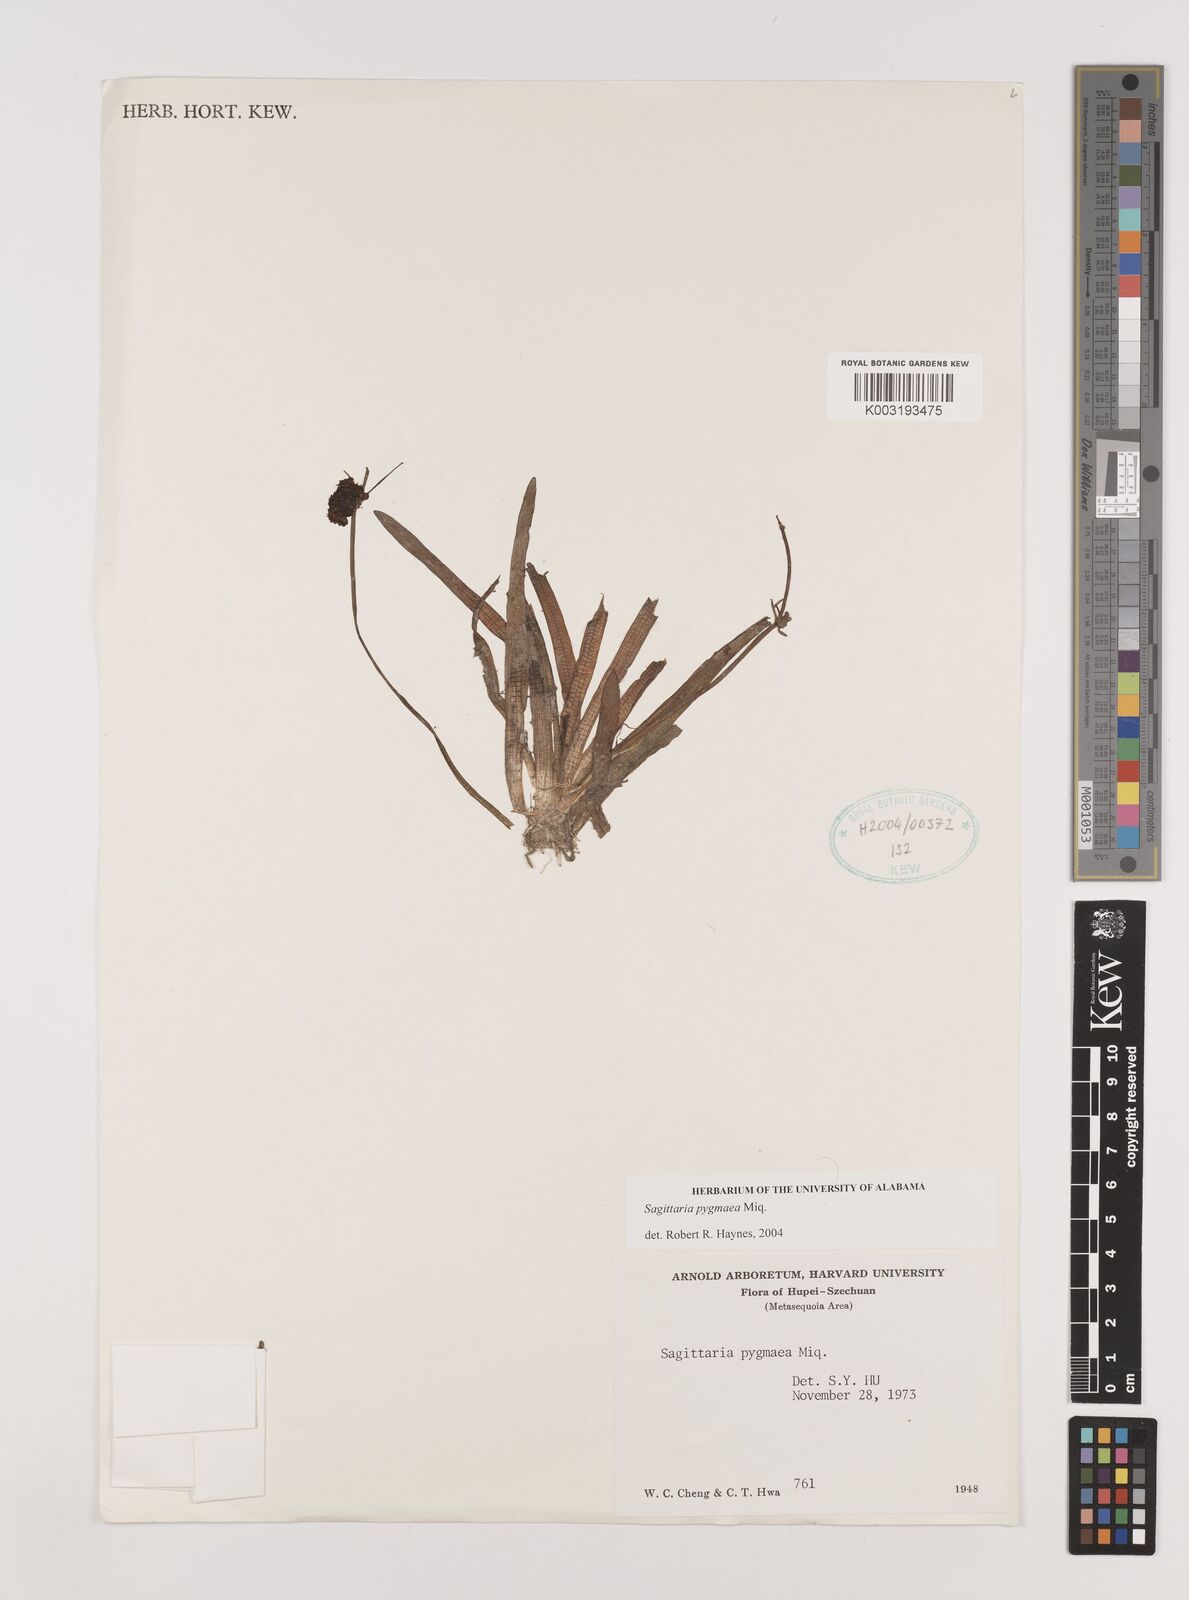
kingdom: Plantae
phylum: Tracheophyta
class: Liliopsida
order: Alismatales
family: Alismataceae
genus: Sagittaria
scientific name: Sagittaria pygmaea
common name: Pygmy arrowhead
